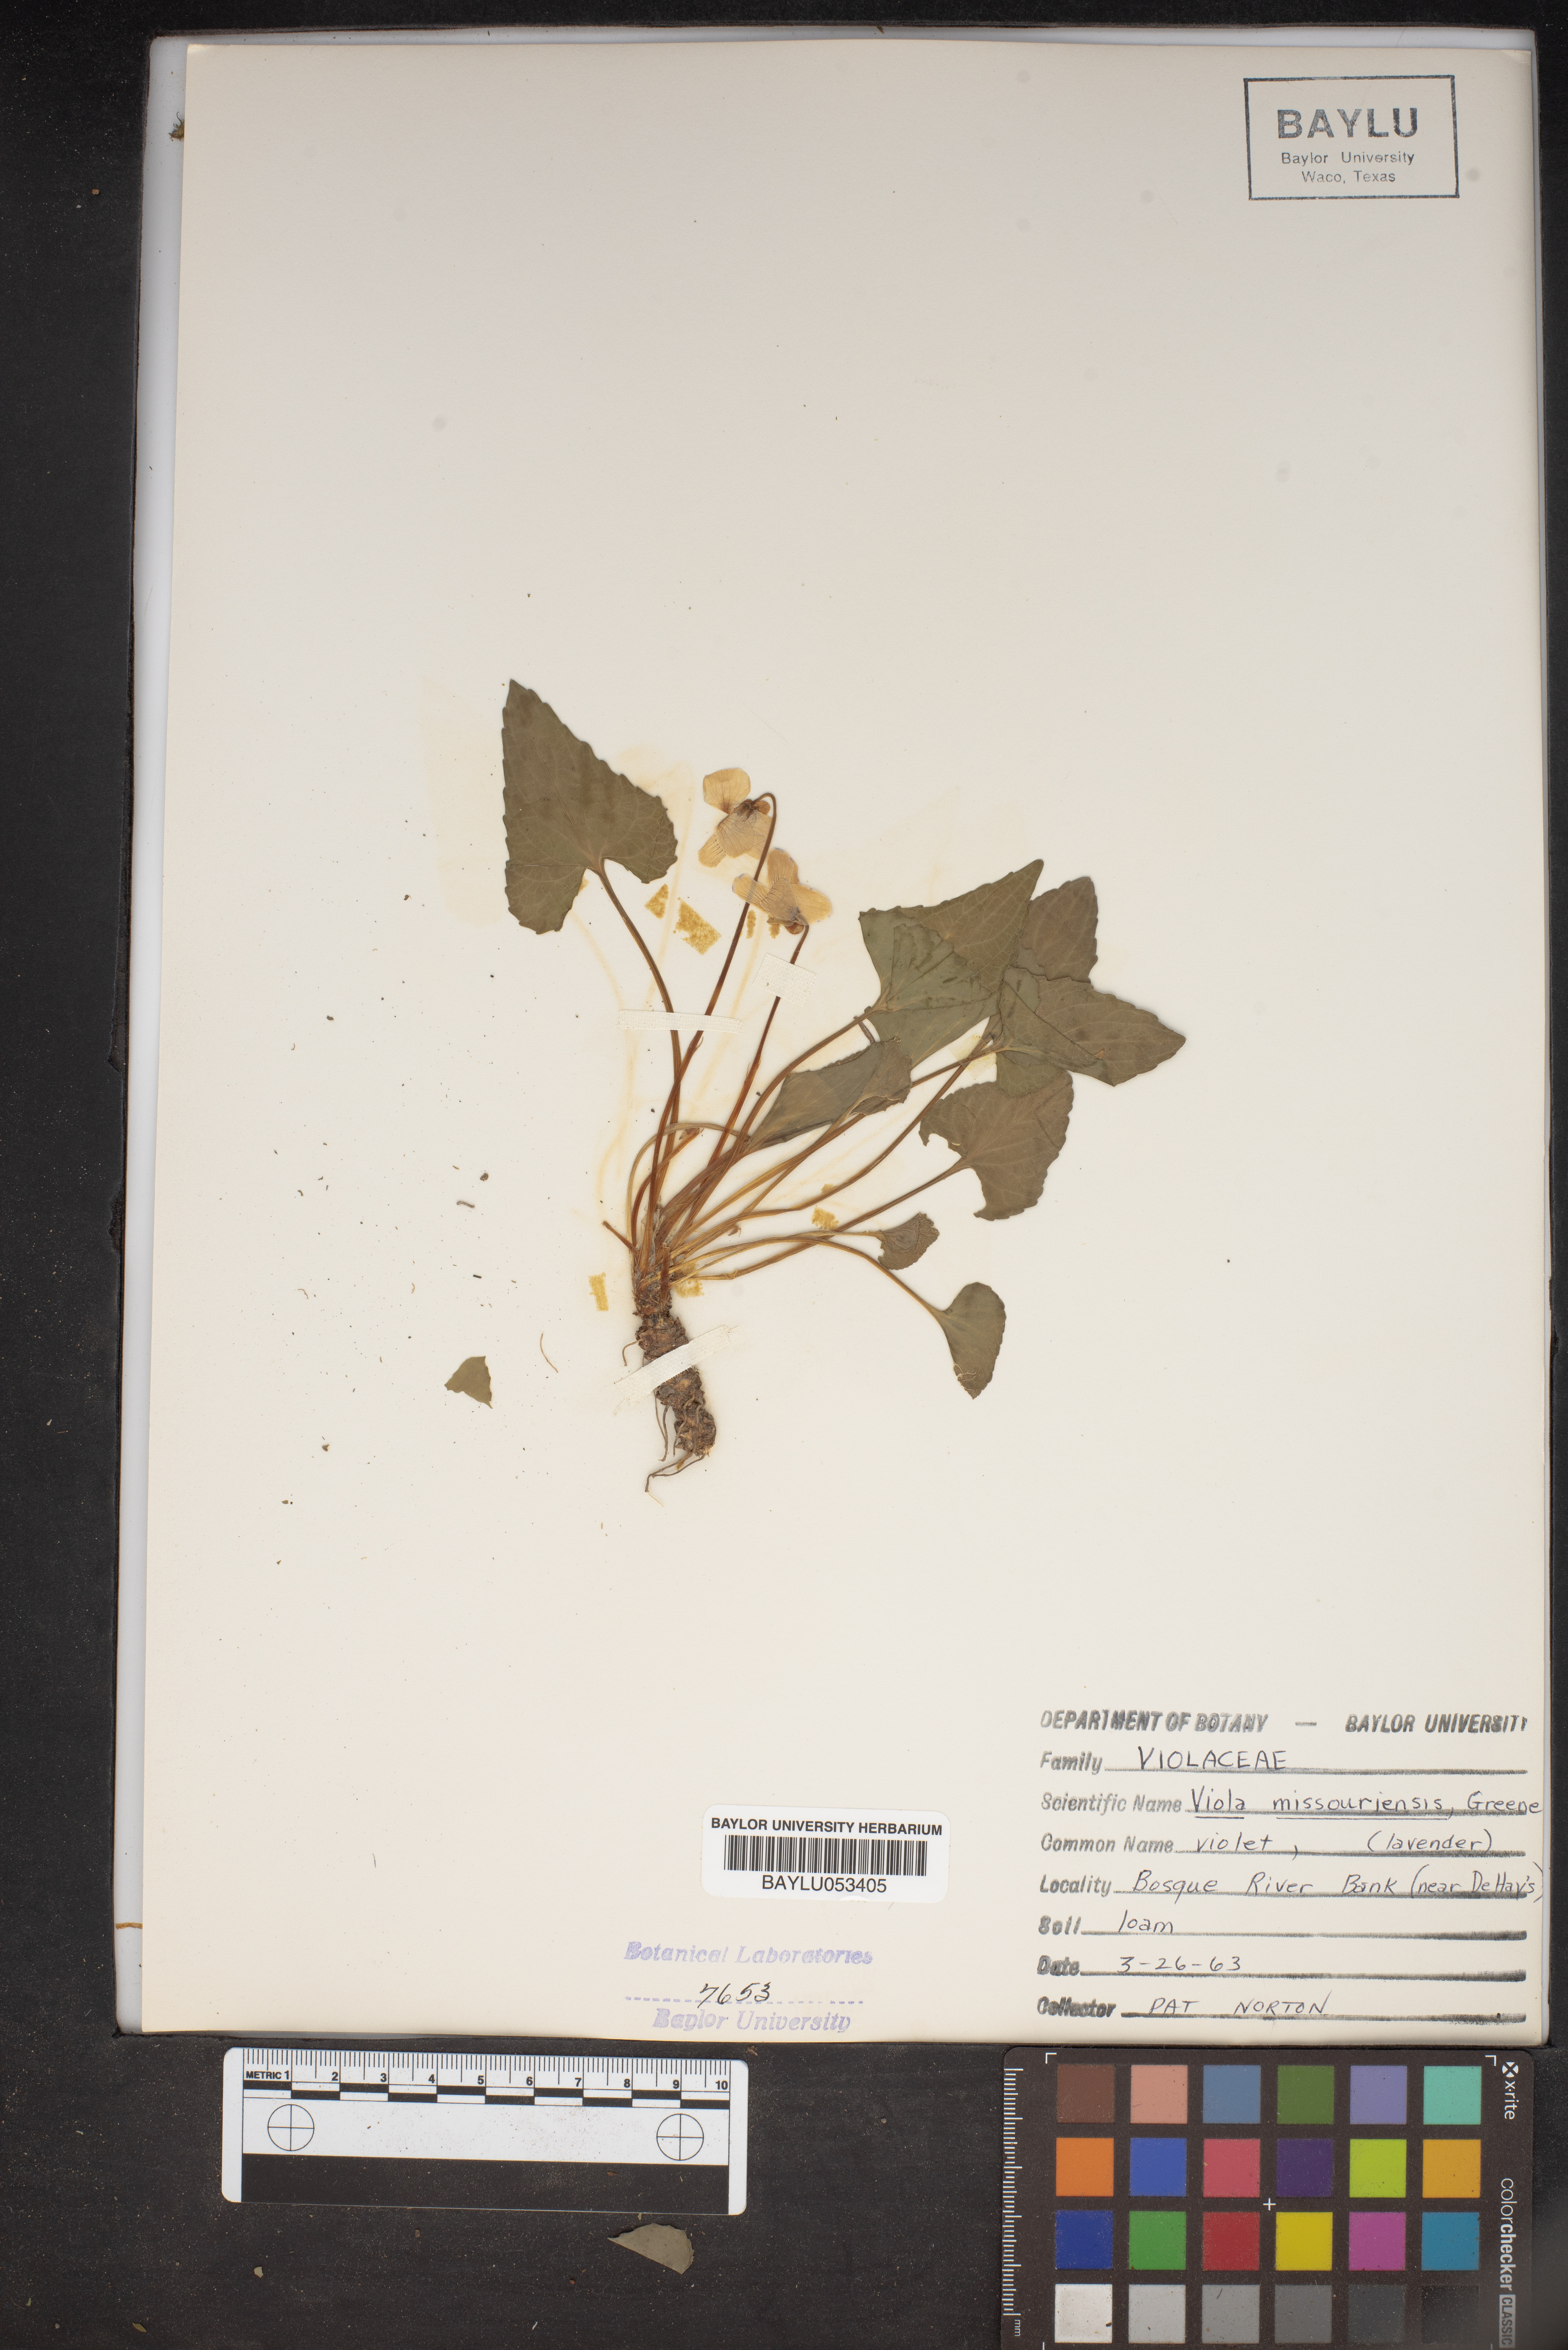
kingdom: Plantae
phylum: Tracheophyta
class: Magnoliopsida
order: Malpighiales
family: Violaceae
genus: Viola
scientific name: Viola missouriensis
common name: Missouri violet
